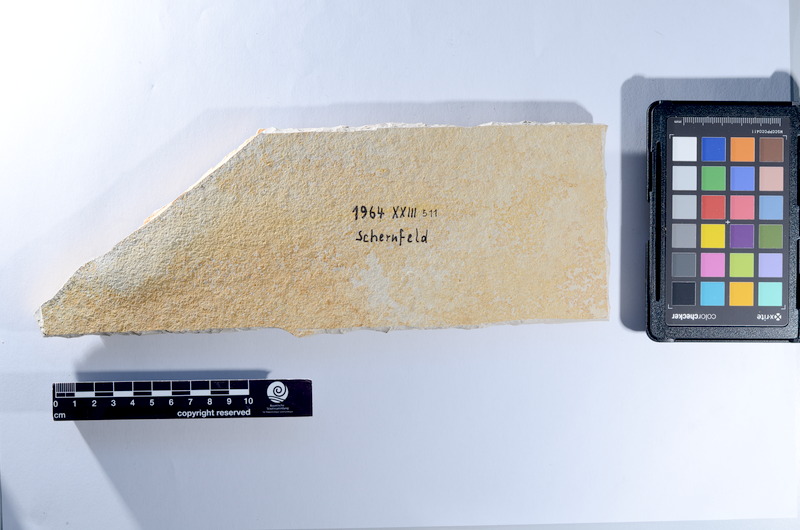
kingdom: Animalia
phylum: Chordata
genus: Thrissops
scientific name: Thrissops
